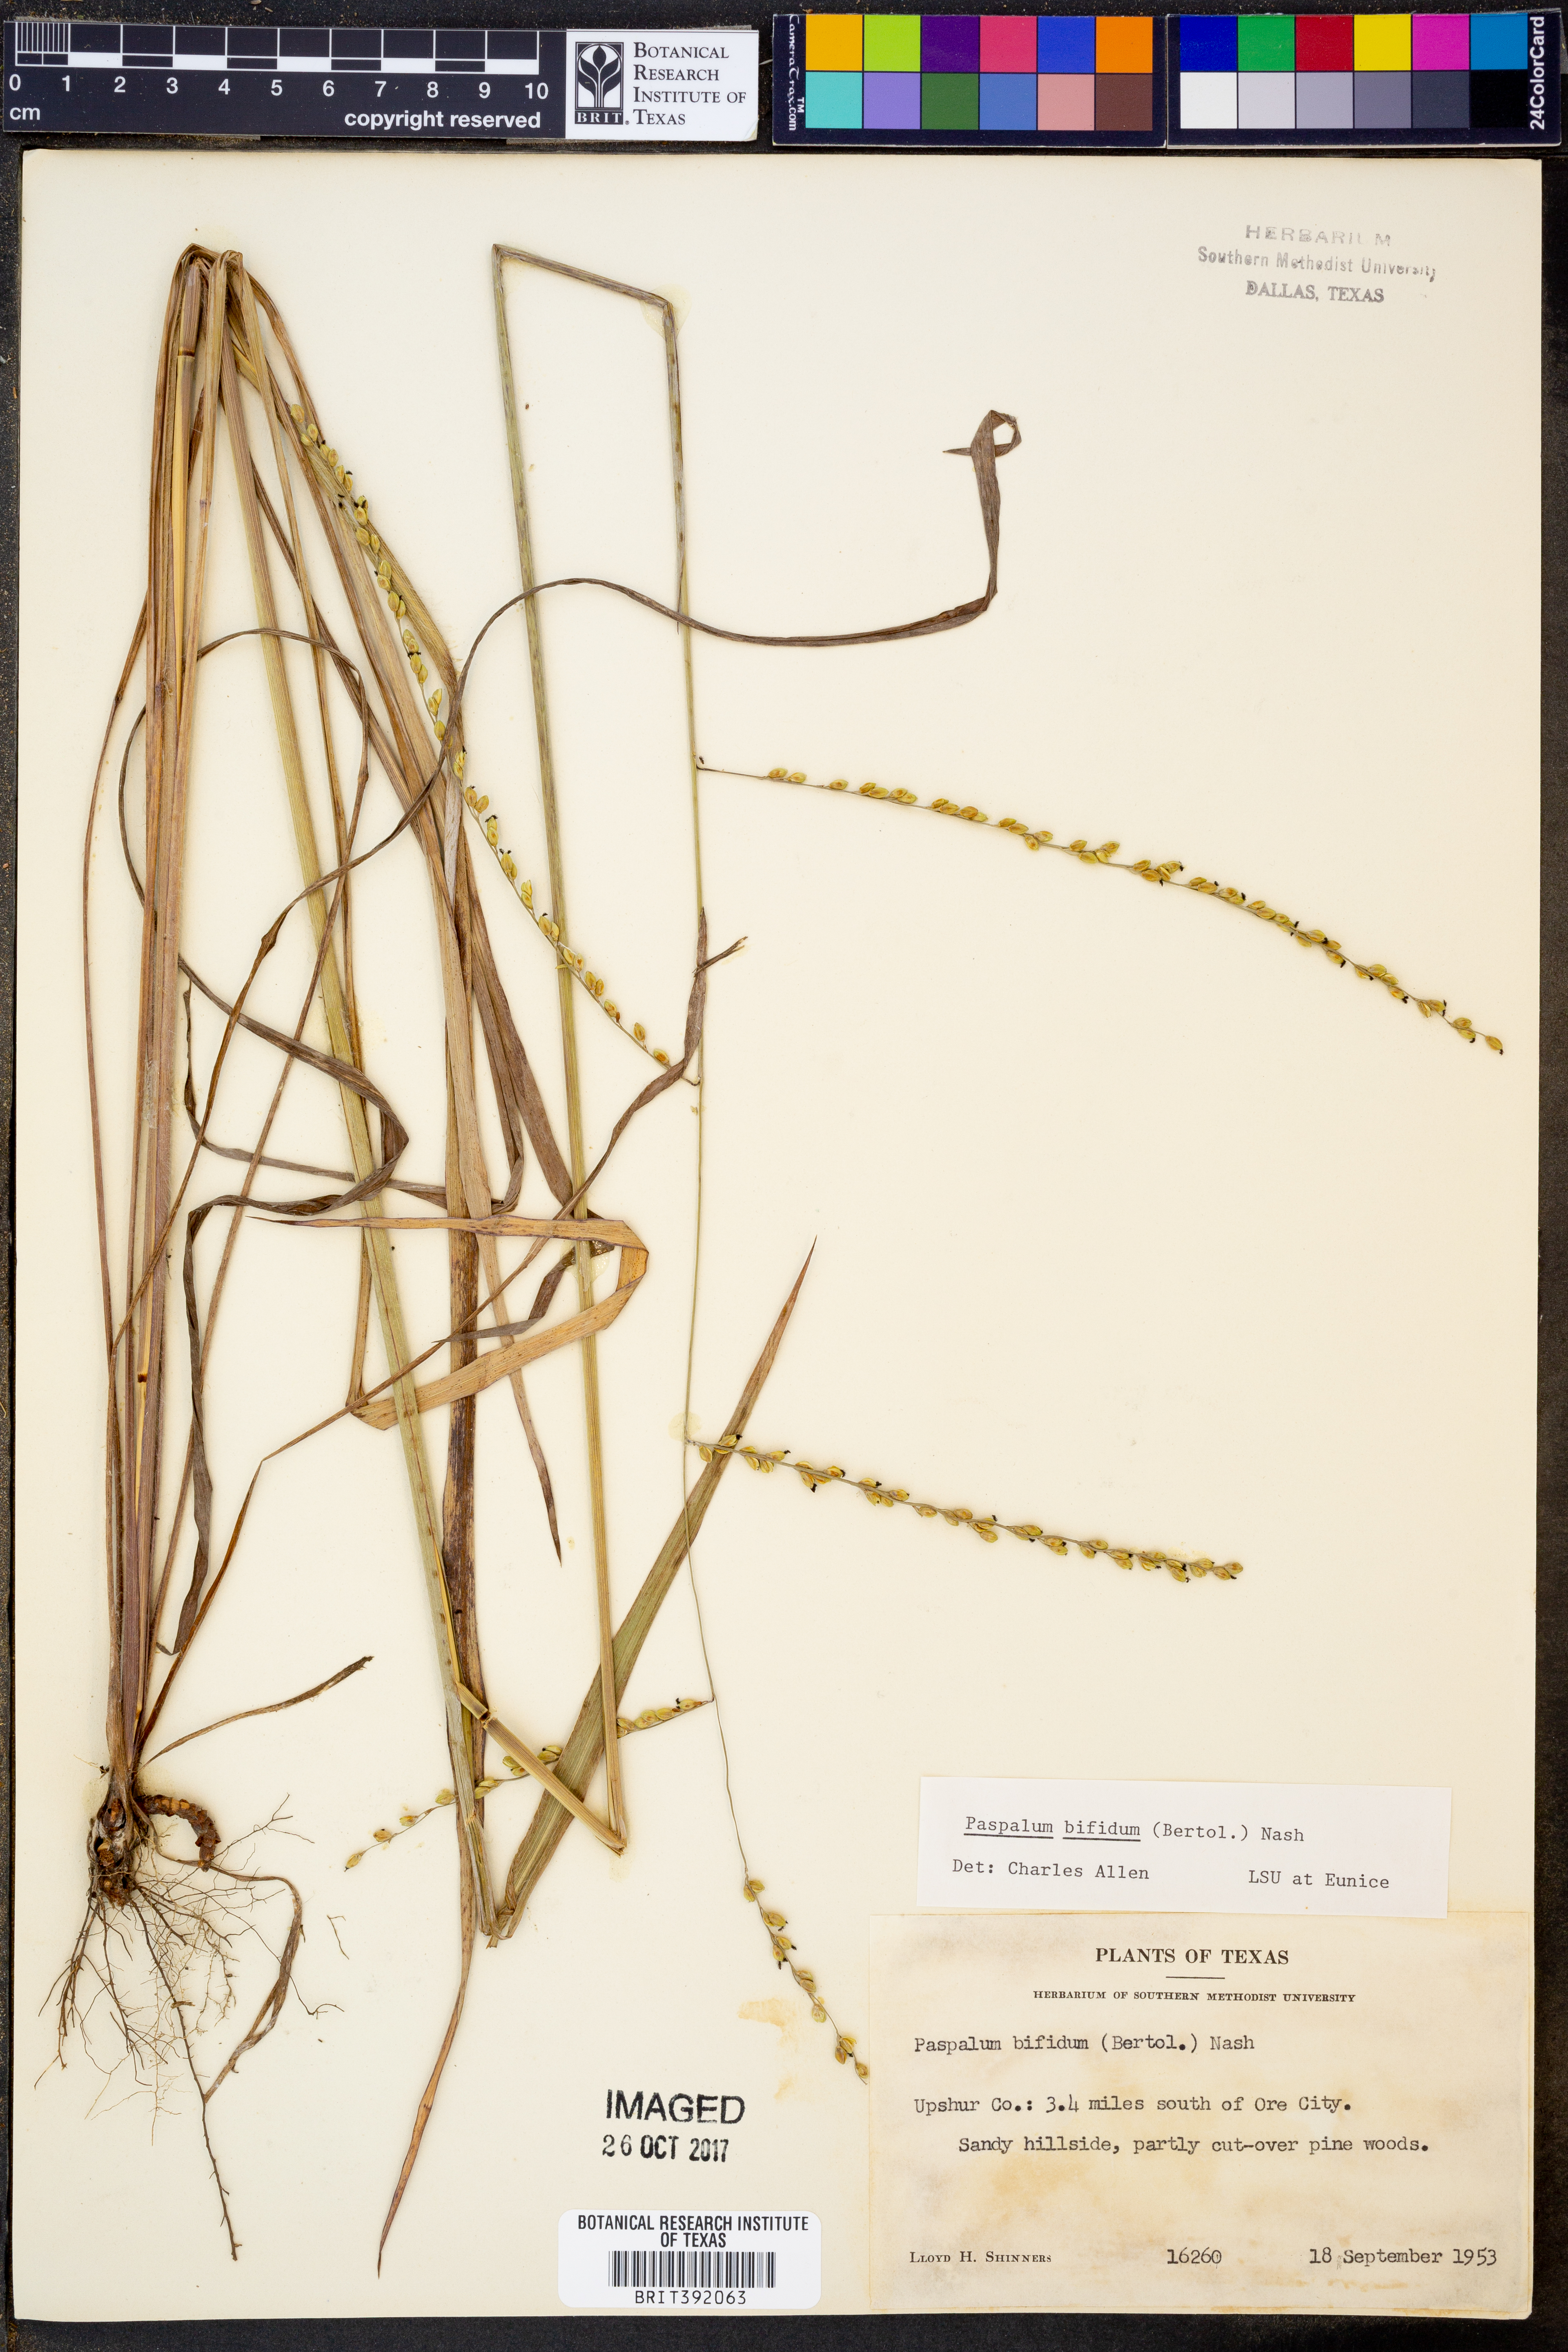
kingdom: Plantae
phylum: Tracheophyta
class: Liliopsida
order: Poales
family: Poaceae
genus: Paspalum
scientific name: Paspalum bifidum
